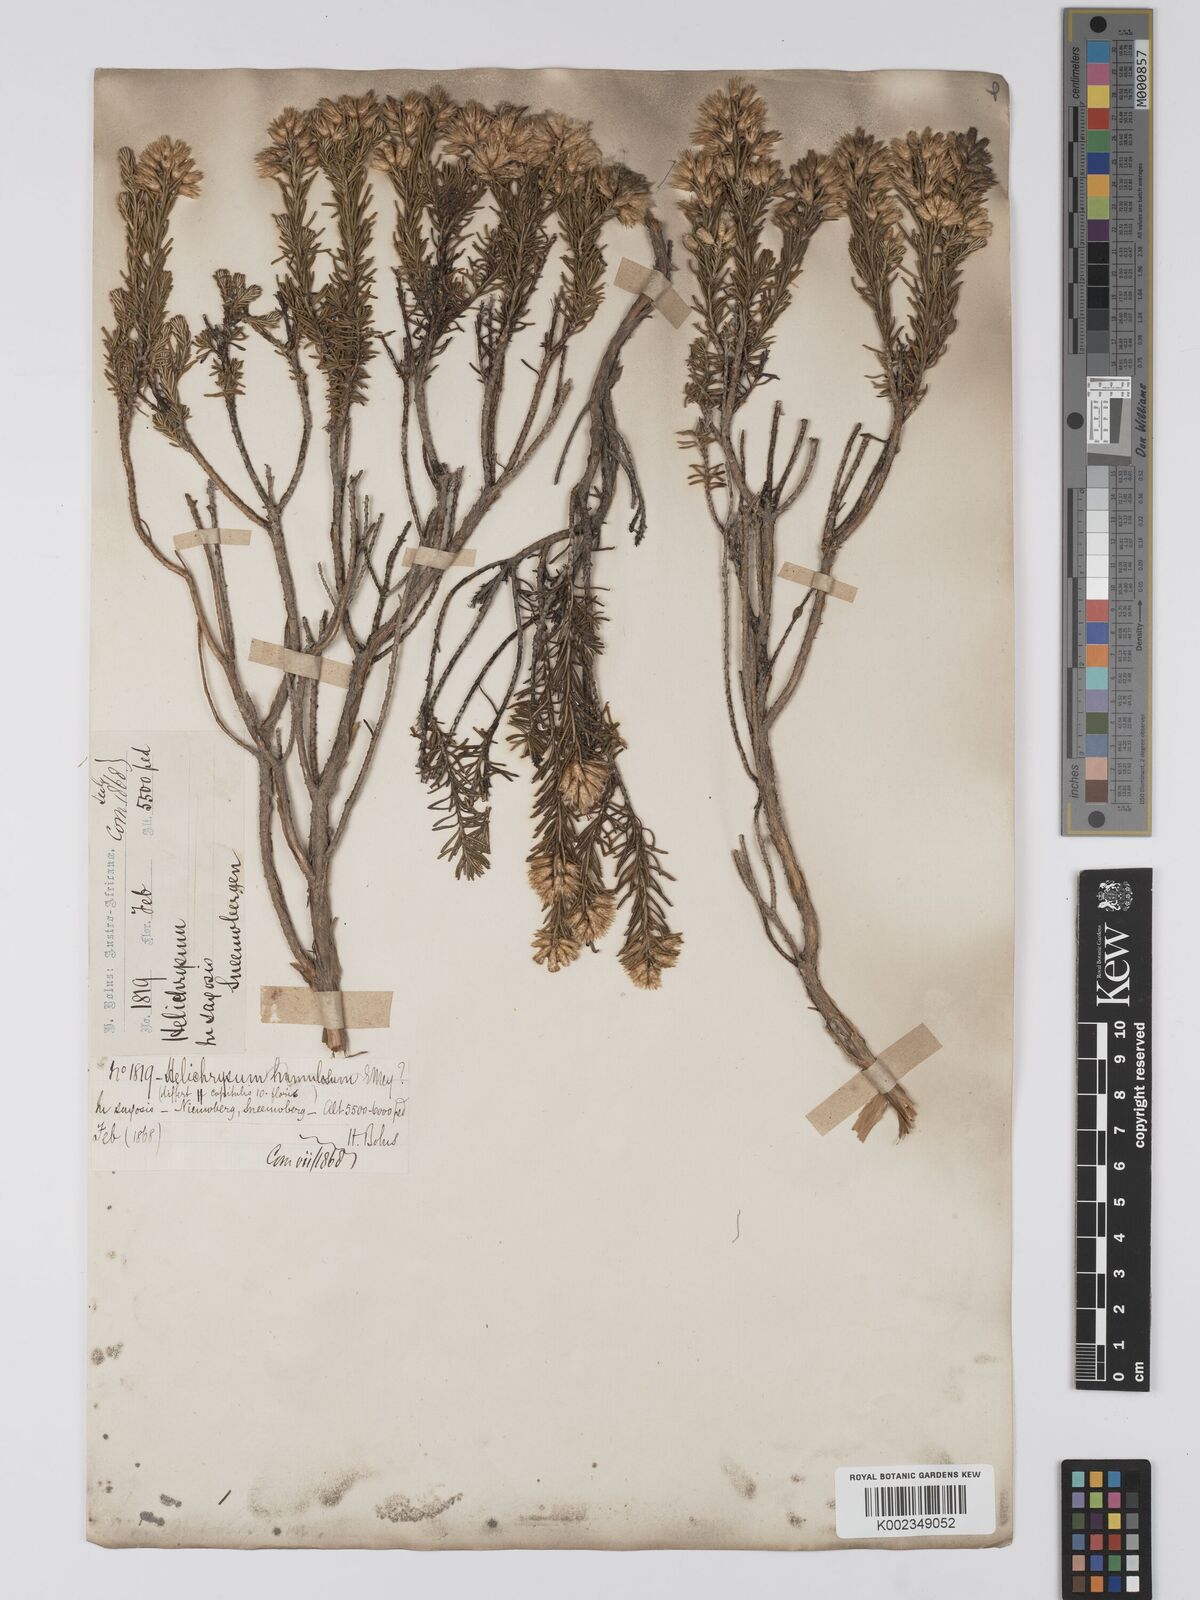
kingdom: Plantae
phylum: Tracheophyta
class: Magnoliopsida
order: Asterales
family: Asteraceae
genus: Helichrysum
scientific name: Helichrysum hamulosum
